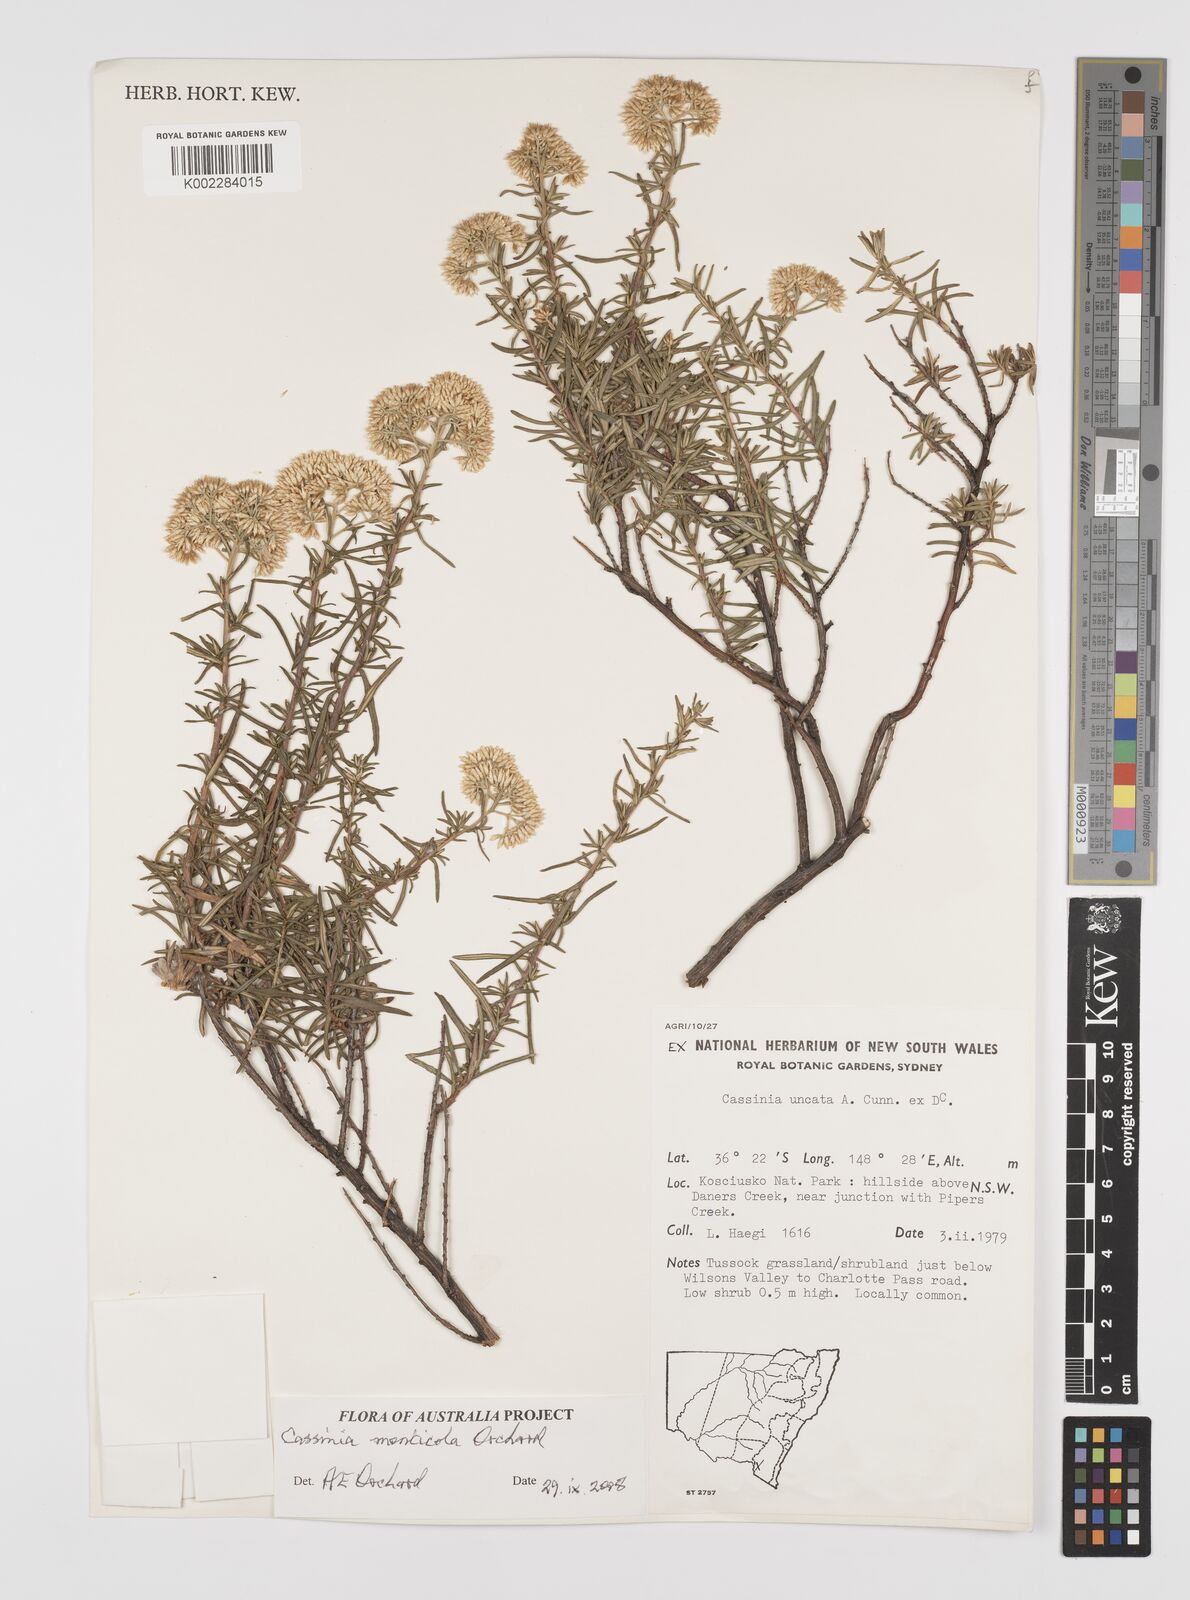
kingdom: Plantae
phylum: Tracheophyta
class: Magnoliopsida
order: Asterales
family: Asteraceae
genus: Cassinia
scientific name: Cassinia monticola
